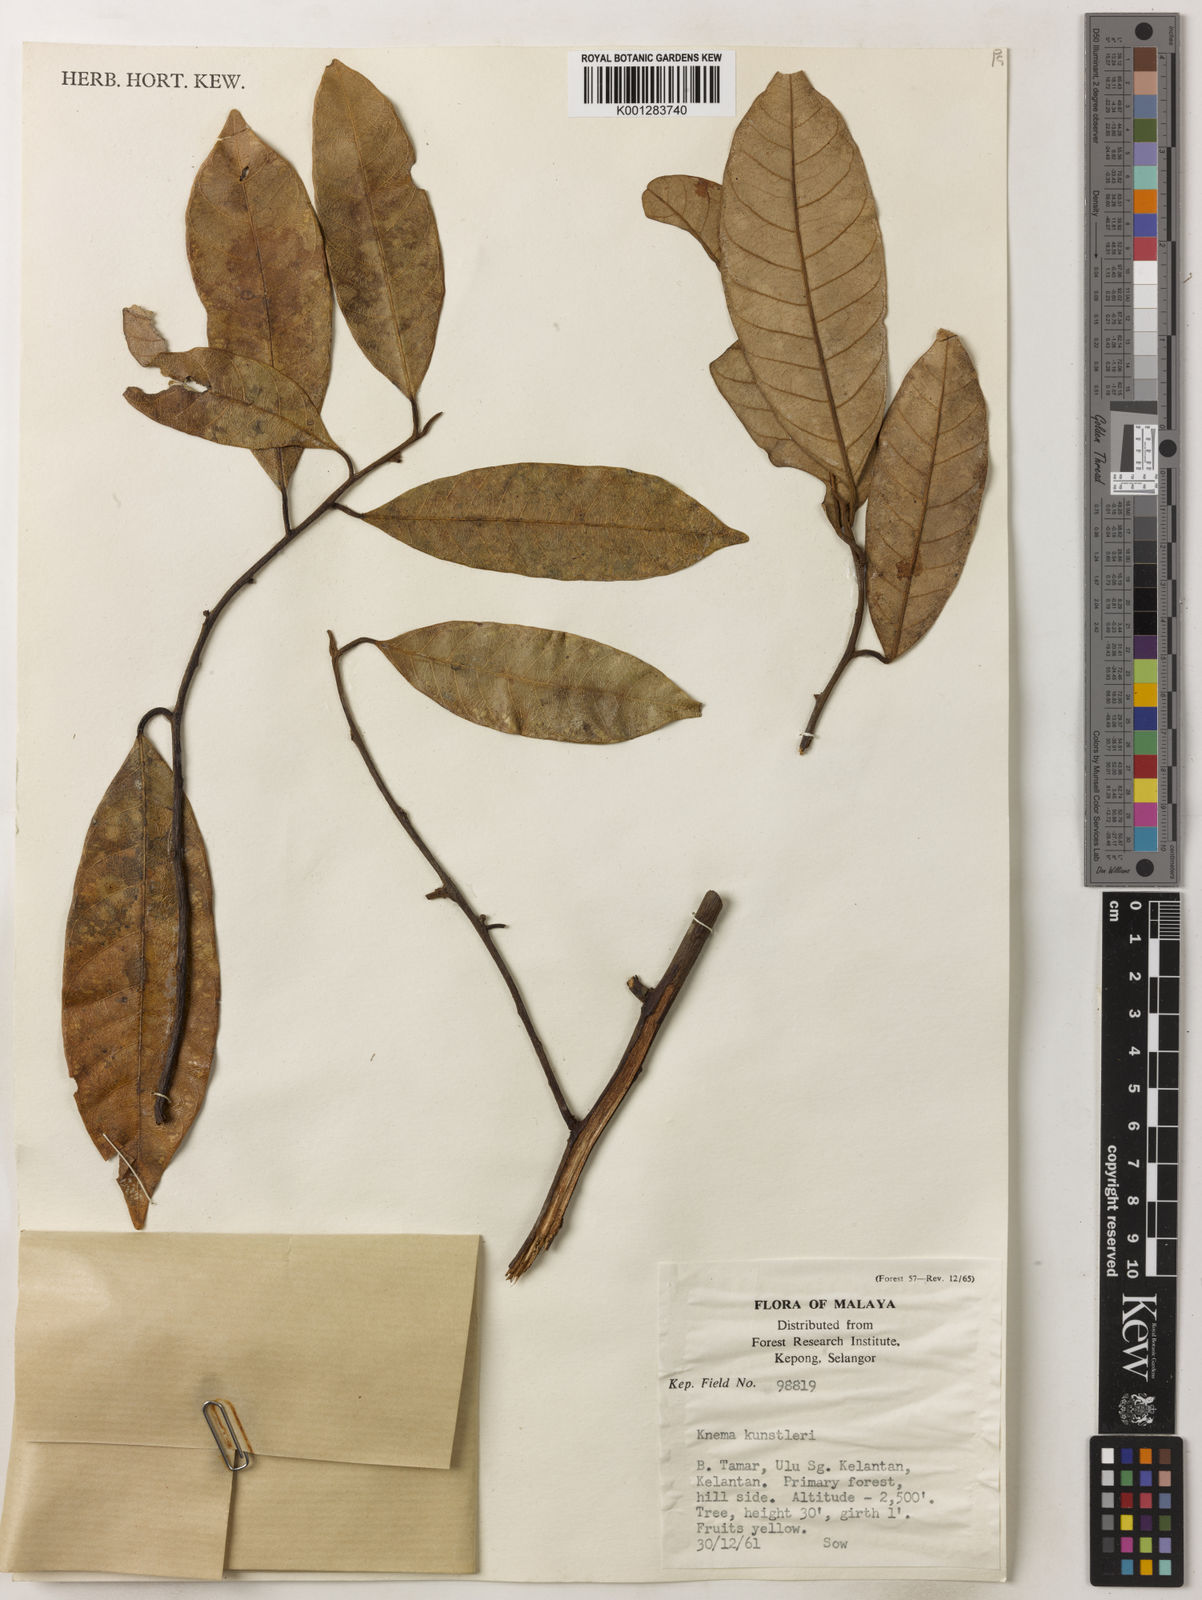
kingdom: Plantae
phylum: Tracheophyta
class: Magnoliopsida
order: Magnoliales
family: Myristicaceae
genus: Knema
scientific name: Knema kunstleri
